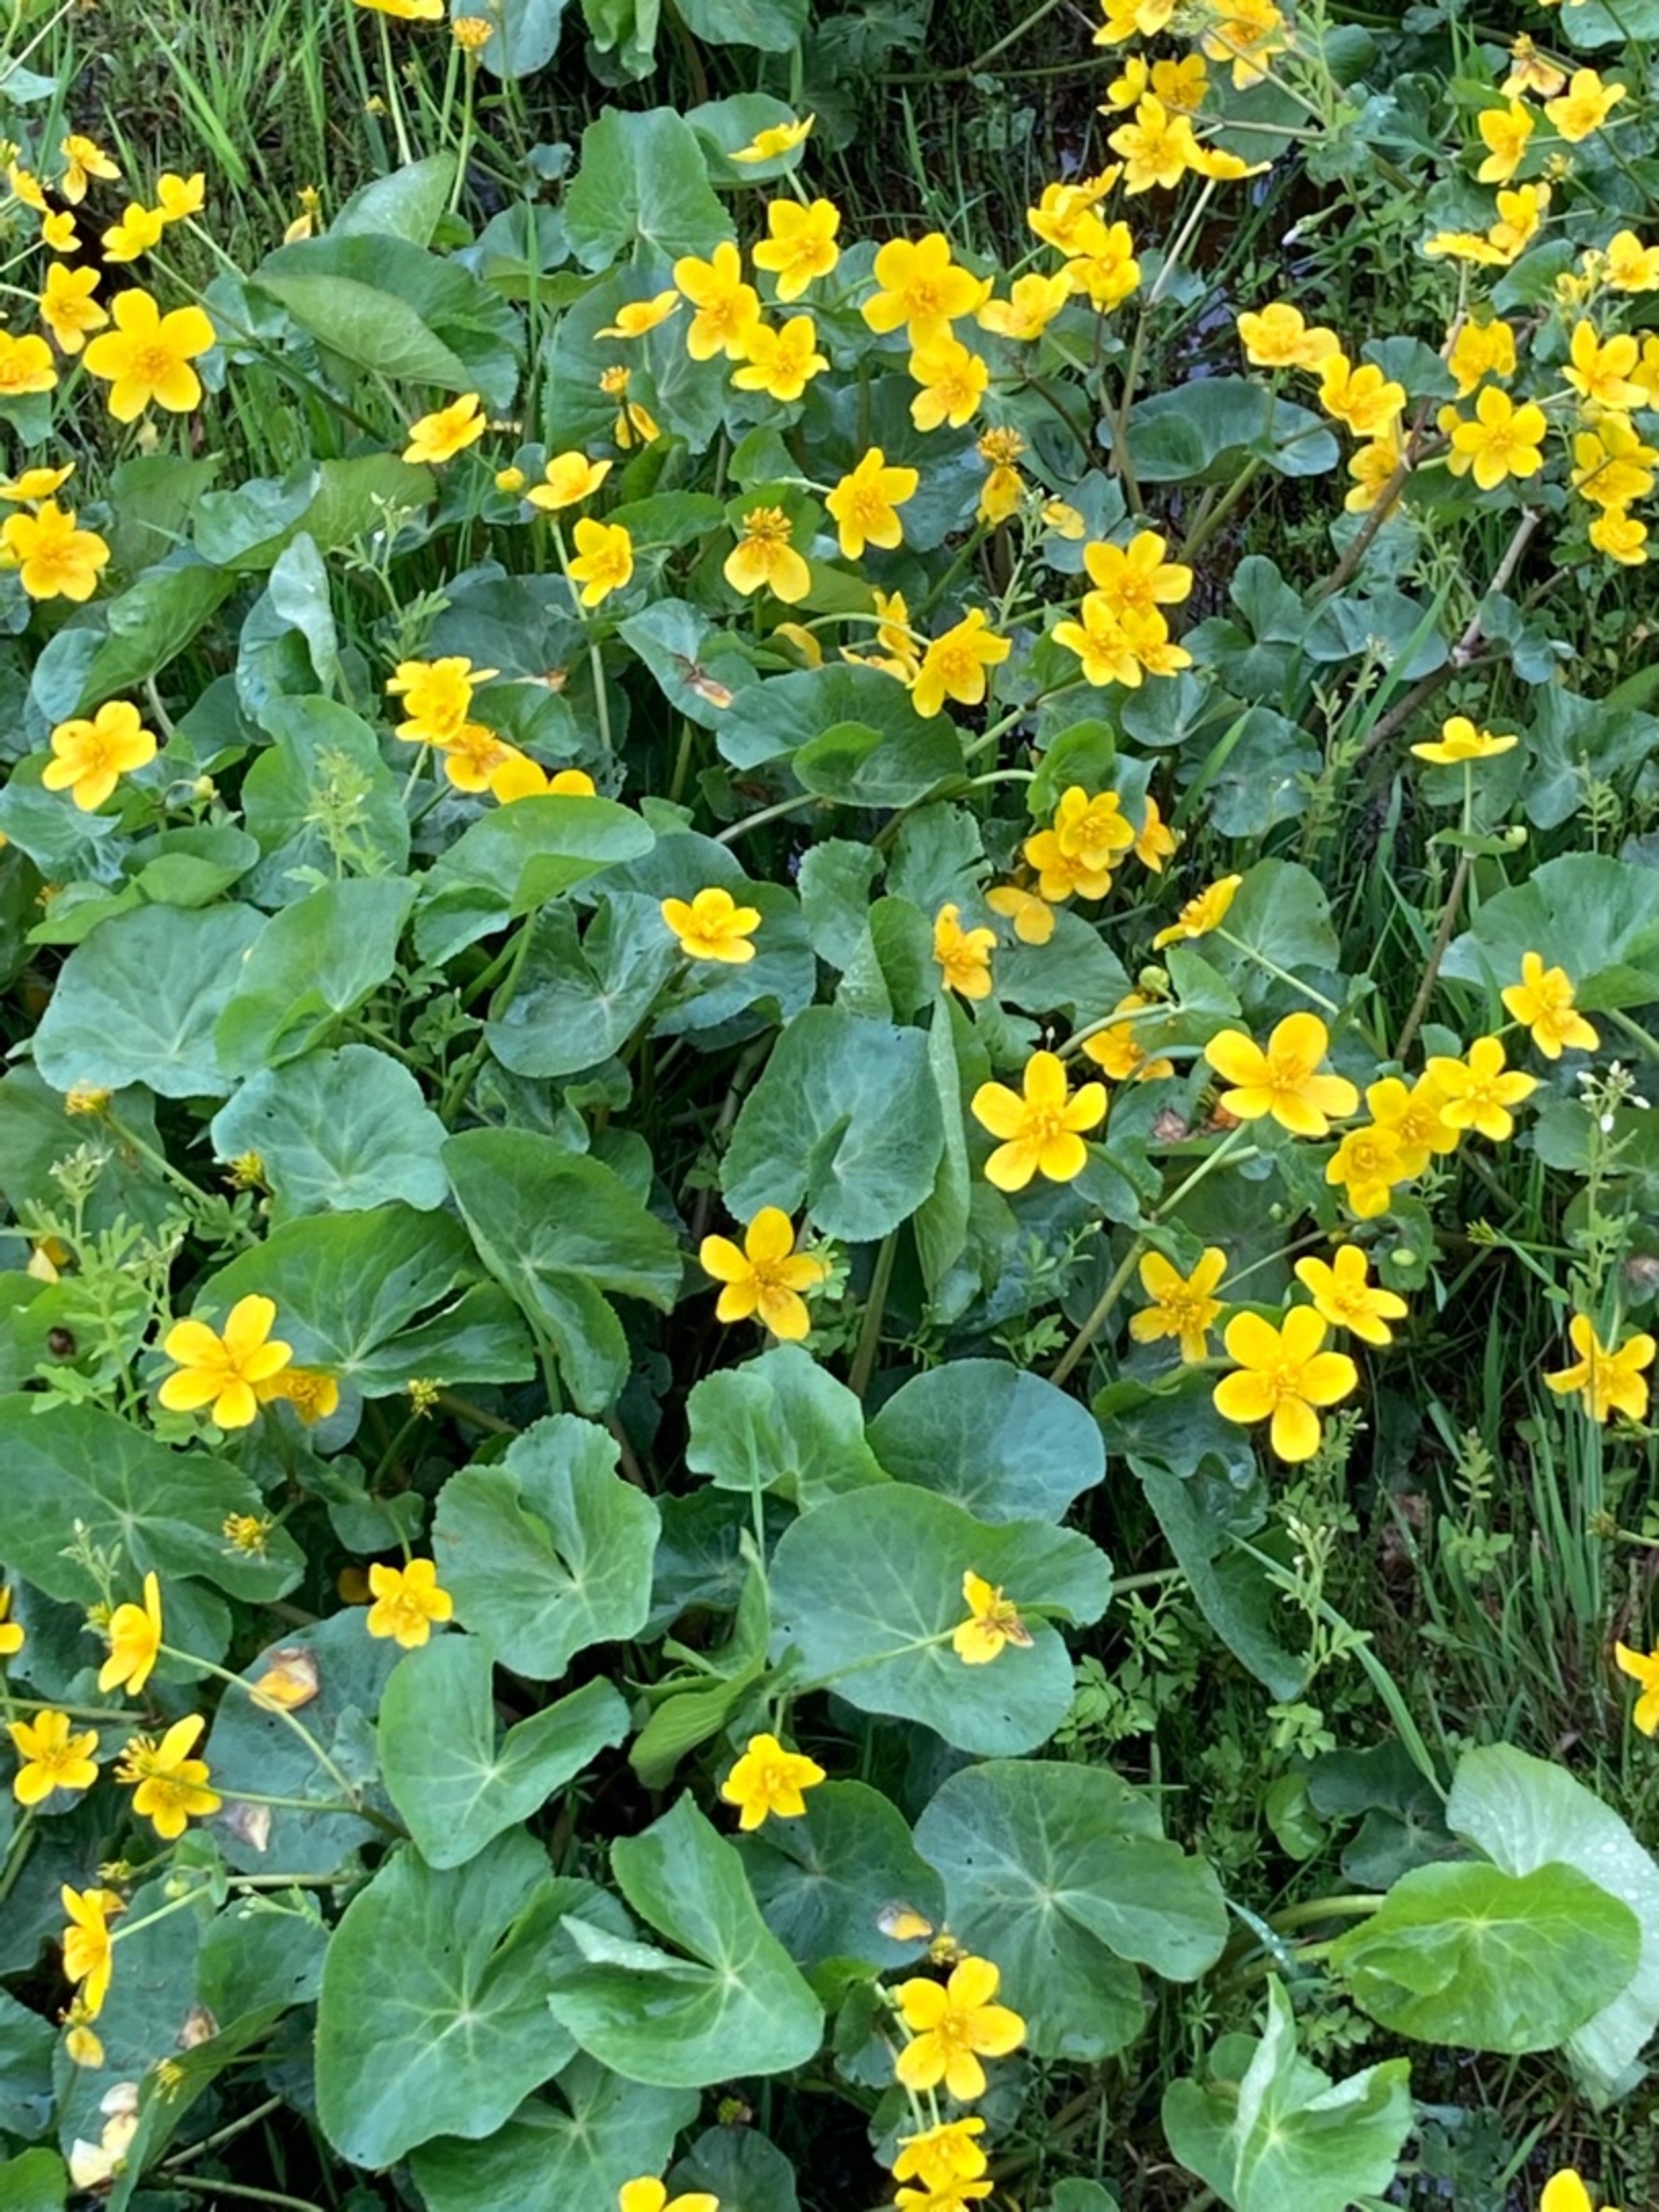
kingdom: Plantae
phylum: Tracheophyta
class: Magnoliopsida
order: Ranunculales
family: Ranunculaceae
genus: Caltha
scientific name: Caltha palustris
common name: Eng-kabbeleje
